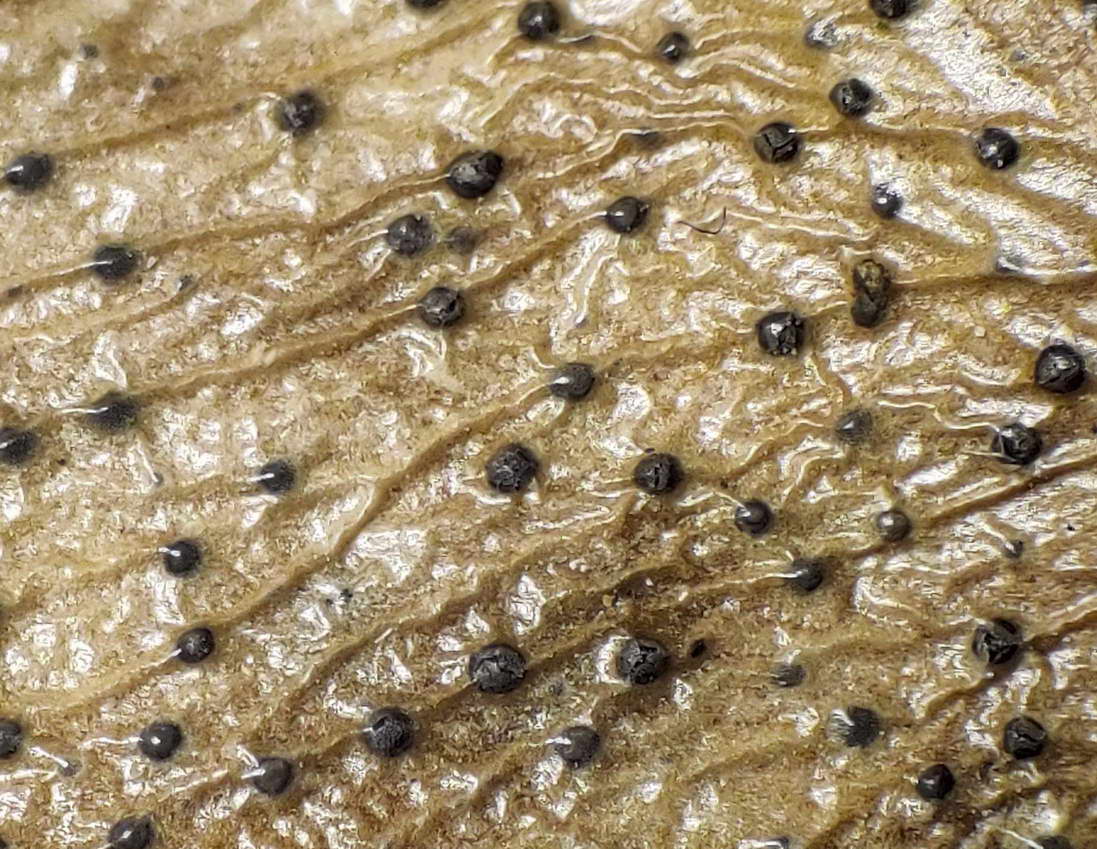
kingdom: Fungi
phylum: Ascomycota
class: Sordariomycetes
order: Diaporthales
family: Diaporthaceae
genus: Diaporthe
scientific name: Diaporthe stictica
